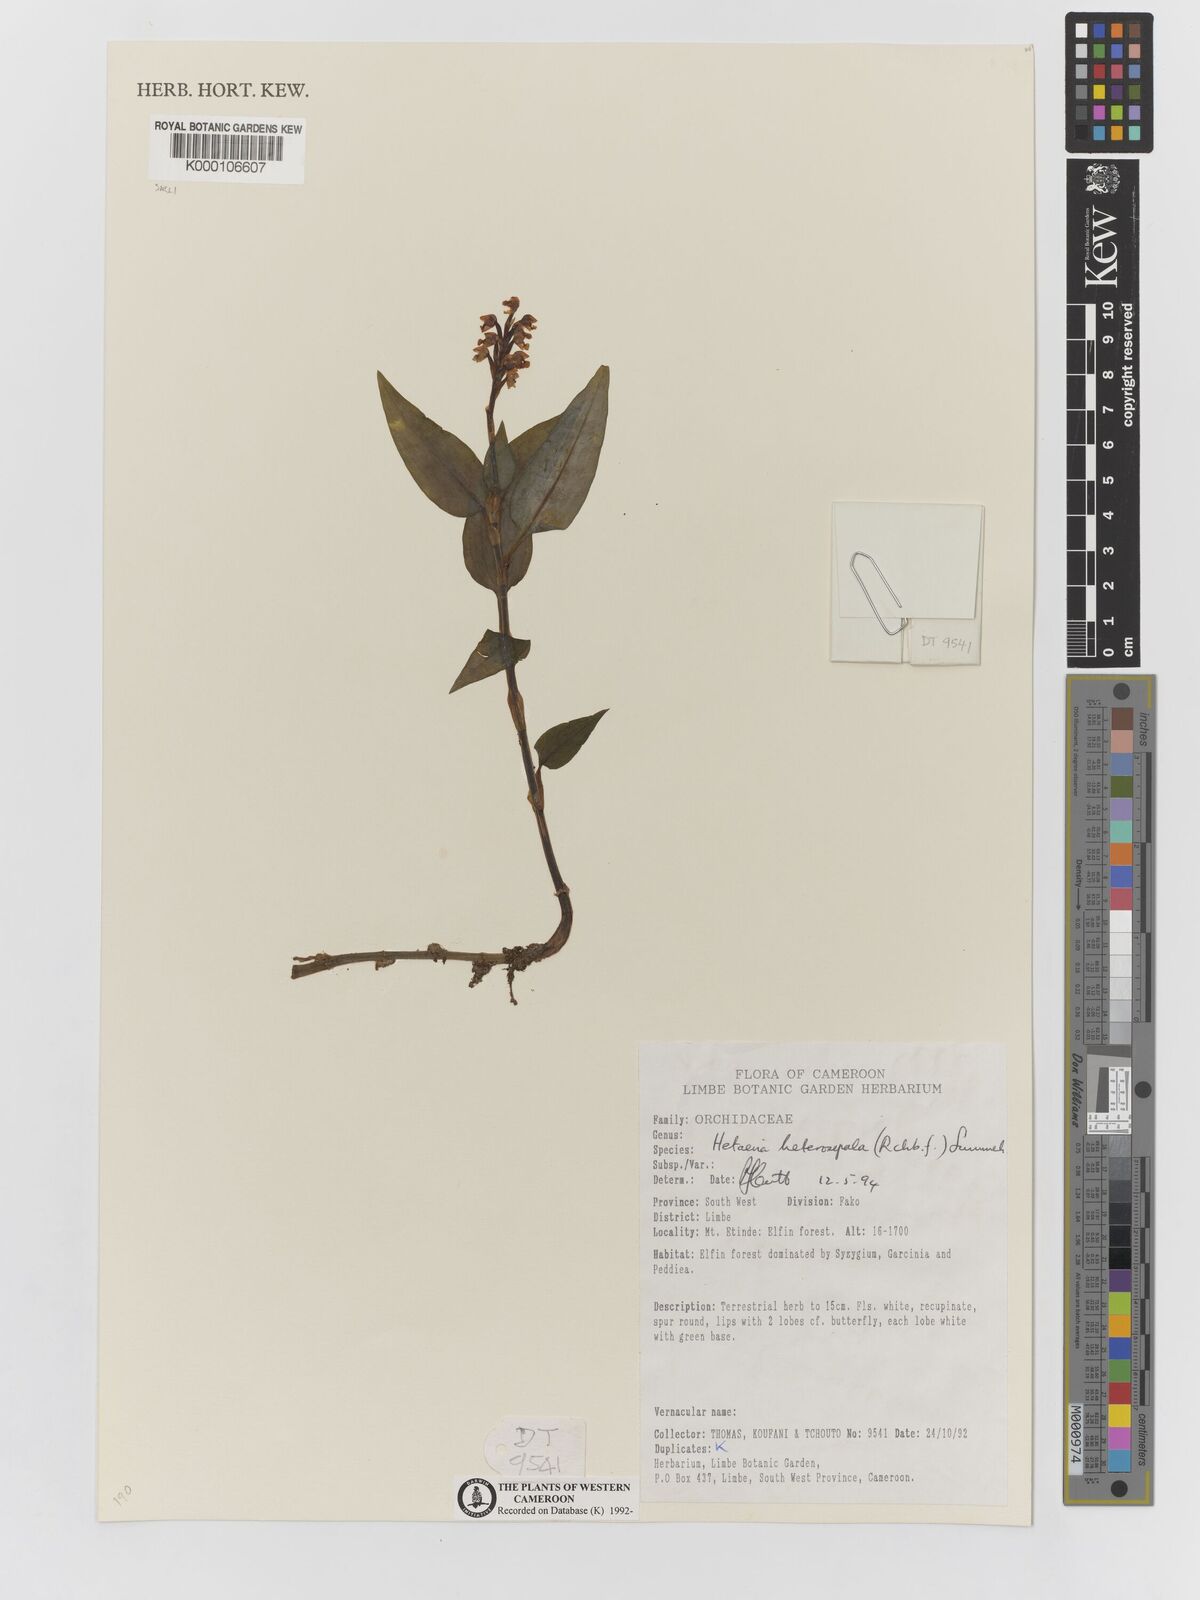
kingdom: Plantae
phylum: Tracheophyta
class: Liliopsida
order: Asparagales
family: Orchidaceae
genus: Hetaeria
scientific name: Hetaeria heterosepala
